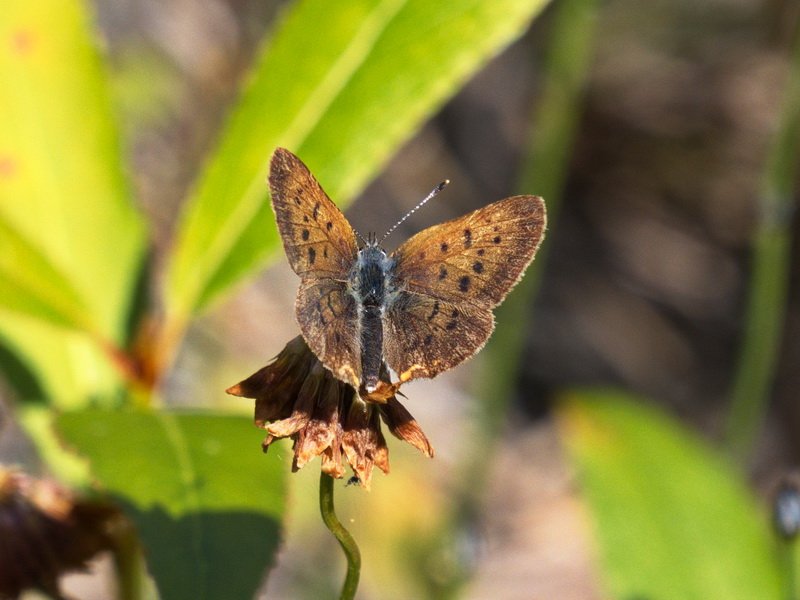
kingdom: Animalia
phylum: Arthropoda
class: Insecta
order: Lepidoptera
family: Lycaenidae
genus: Epidemia
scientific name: Epidemia dorcas
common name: Dorcas Copper
